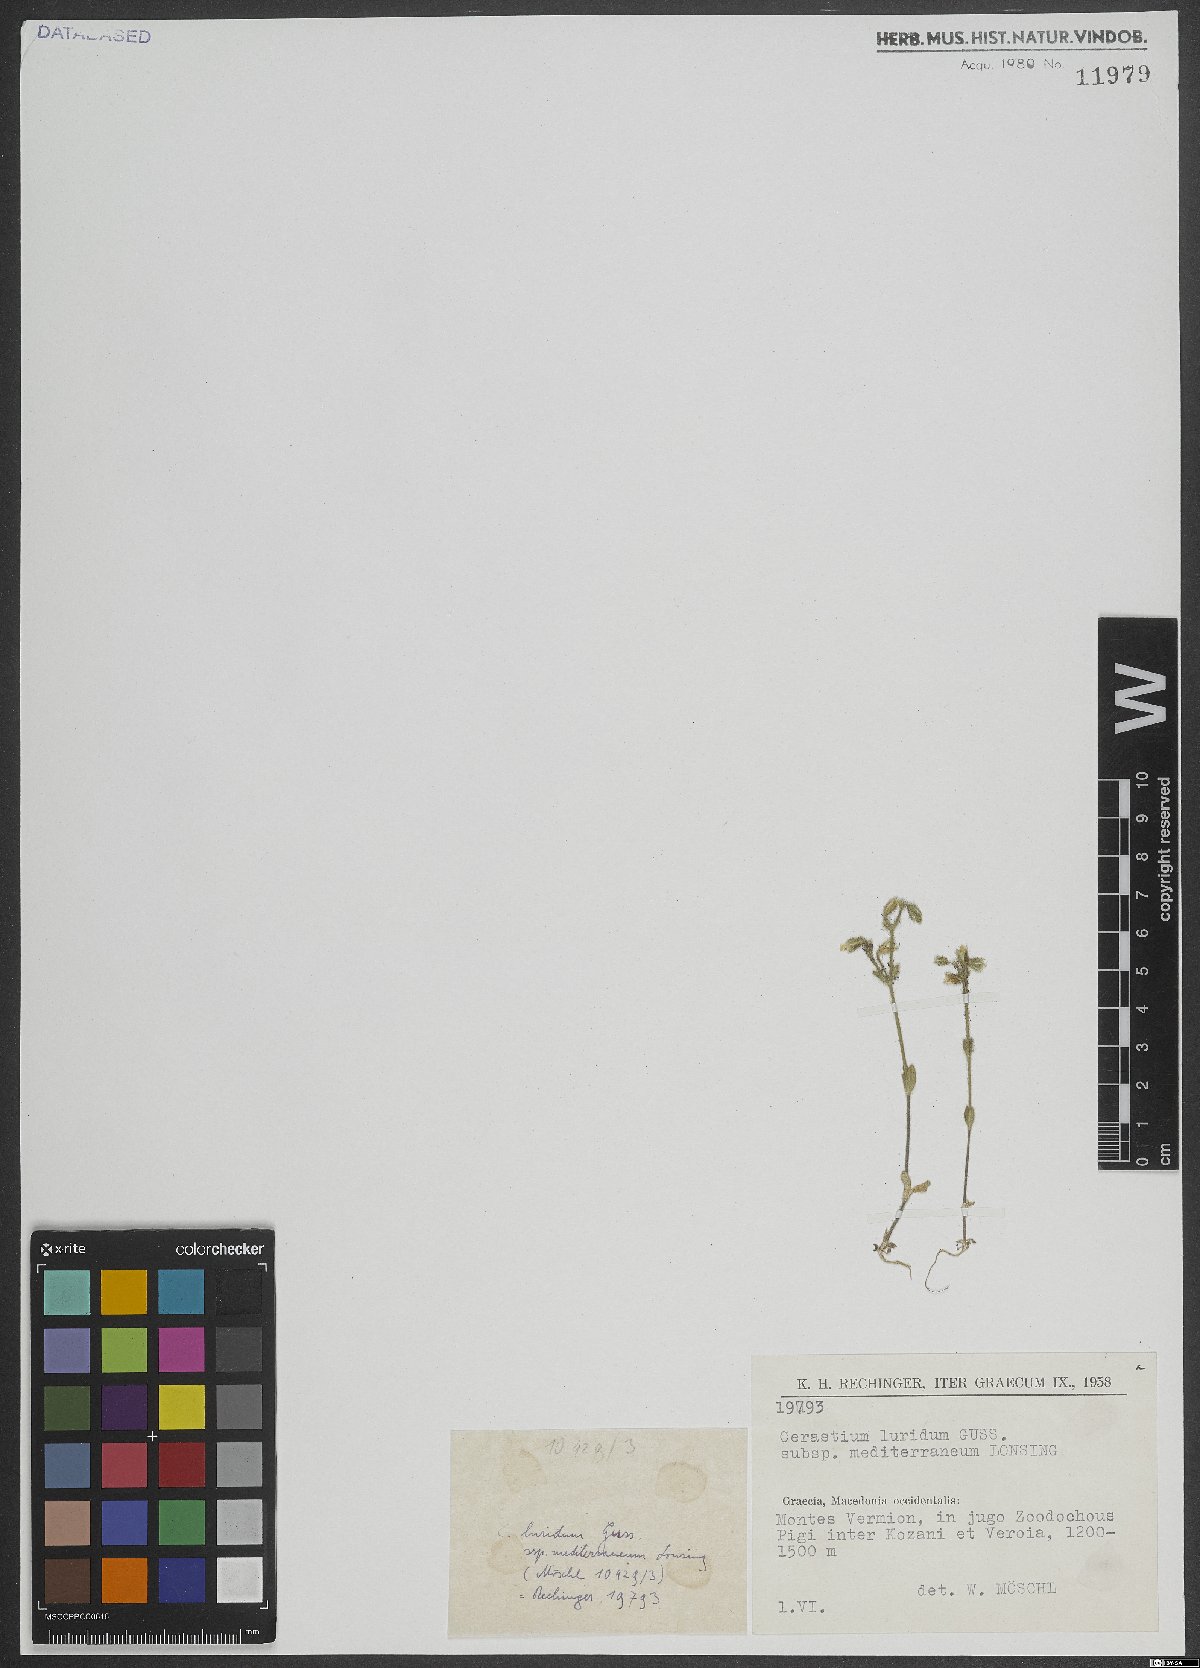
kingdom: Plantae
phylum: Tracheophyta
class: Magnoliopsida
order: Caryophyllales
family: Caryophyllaceae
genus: Cerastium
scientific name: Cerastium brachypetalum
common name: Grey mouse-ear
